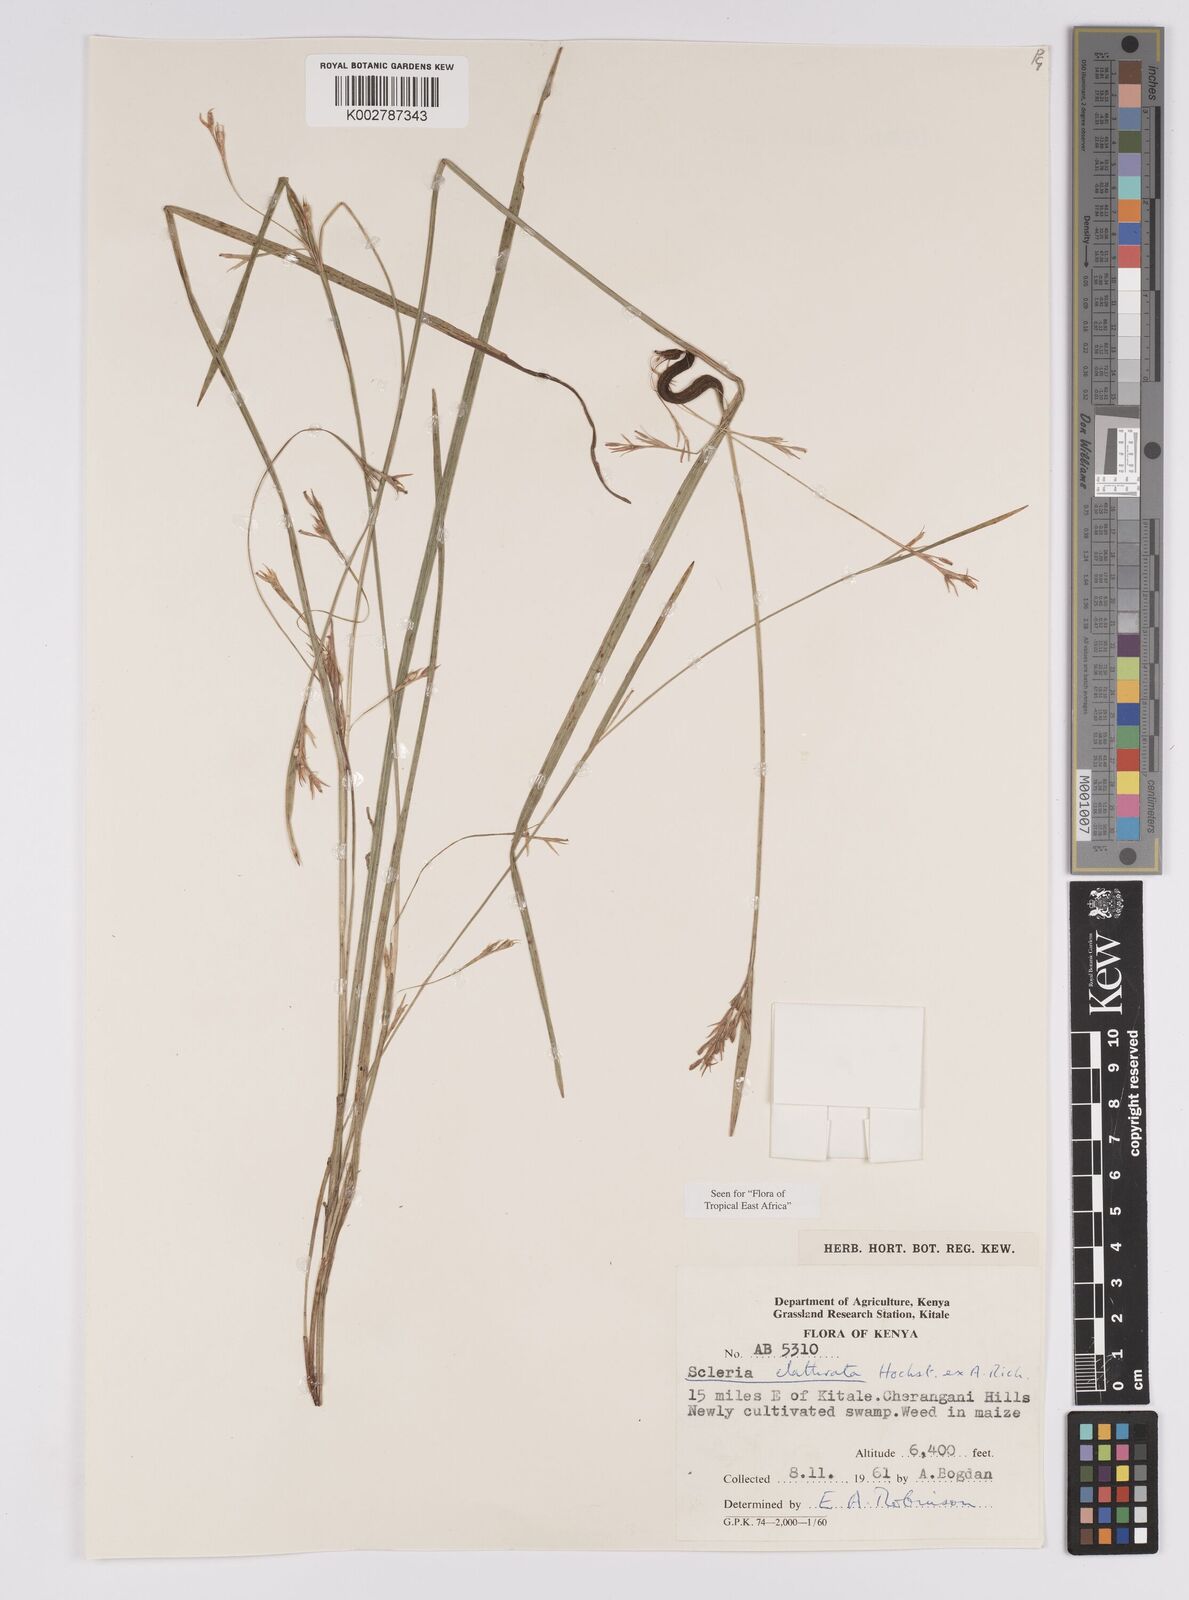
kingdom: Plantae
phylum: Tracheophyta
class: Liliopsida
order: Poales
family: Cyperaceae
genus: Scleria
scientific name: Scleria clathrata
